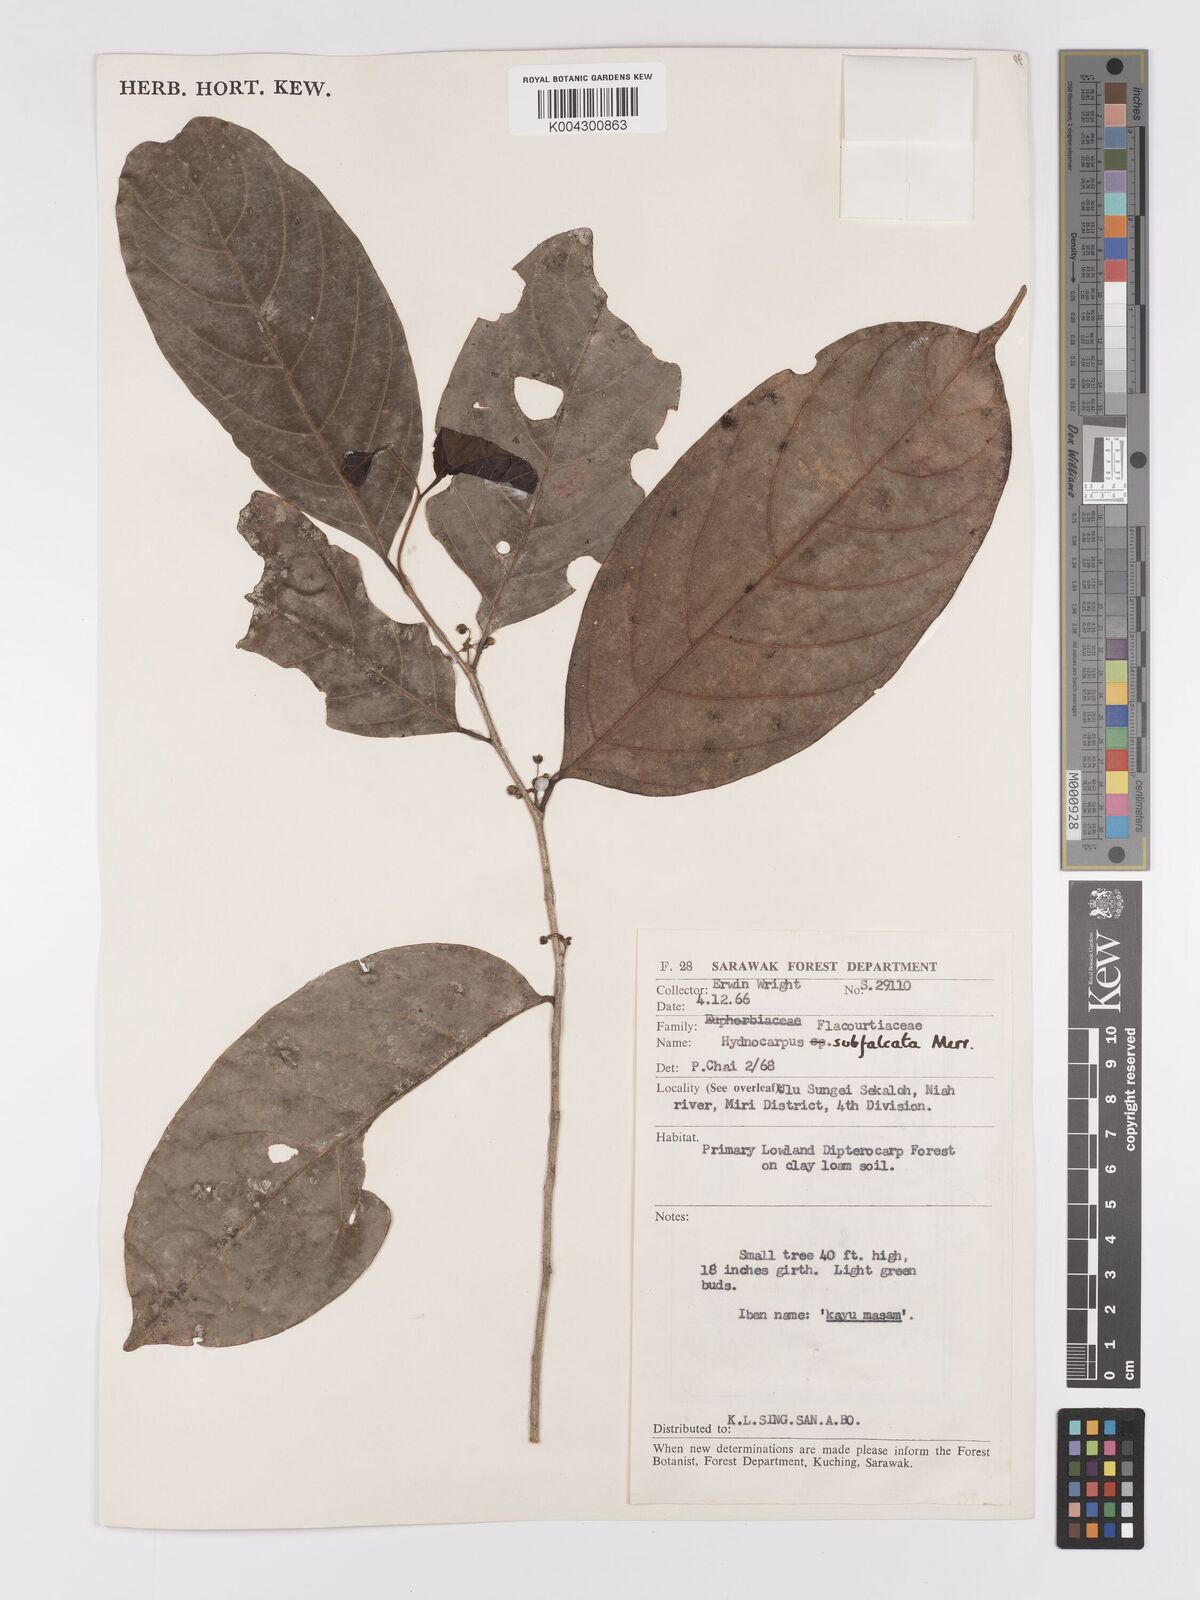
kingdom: Plantae
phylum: Tracheophyta
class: Magnoliopsida
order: Malpighiales
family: Achariaceae
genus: Hydnocarpus
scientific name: Hydnocarpus subfalcatus
